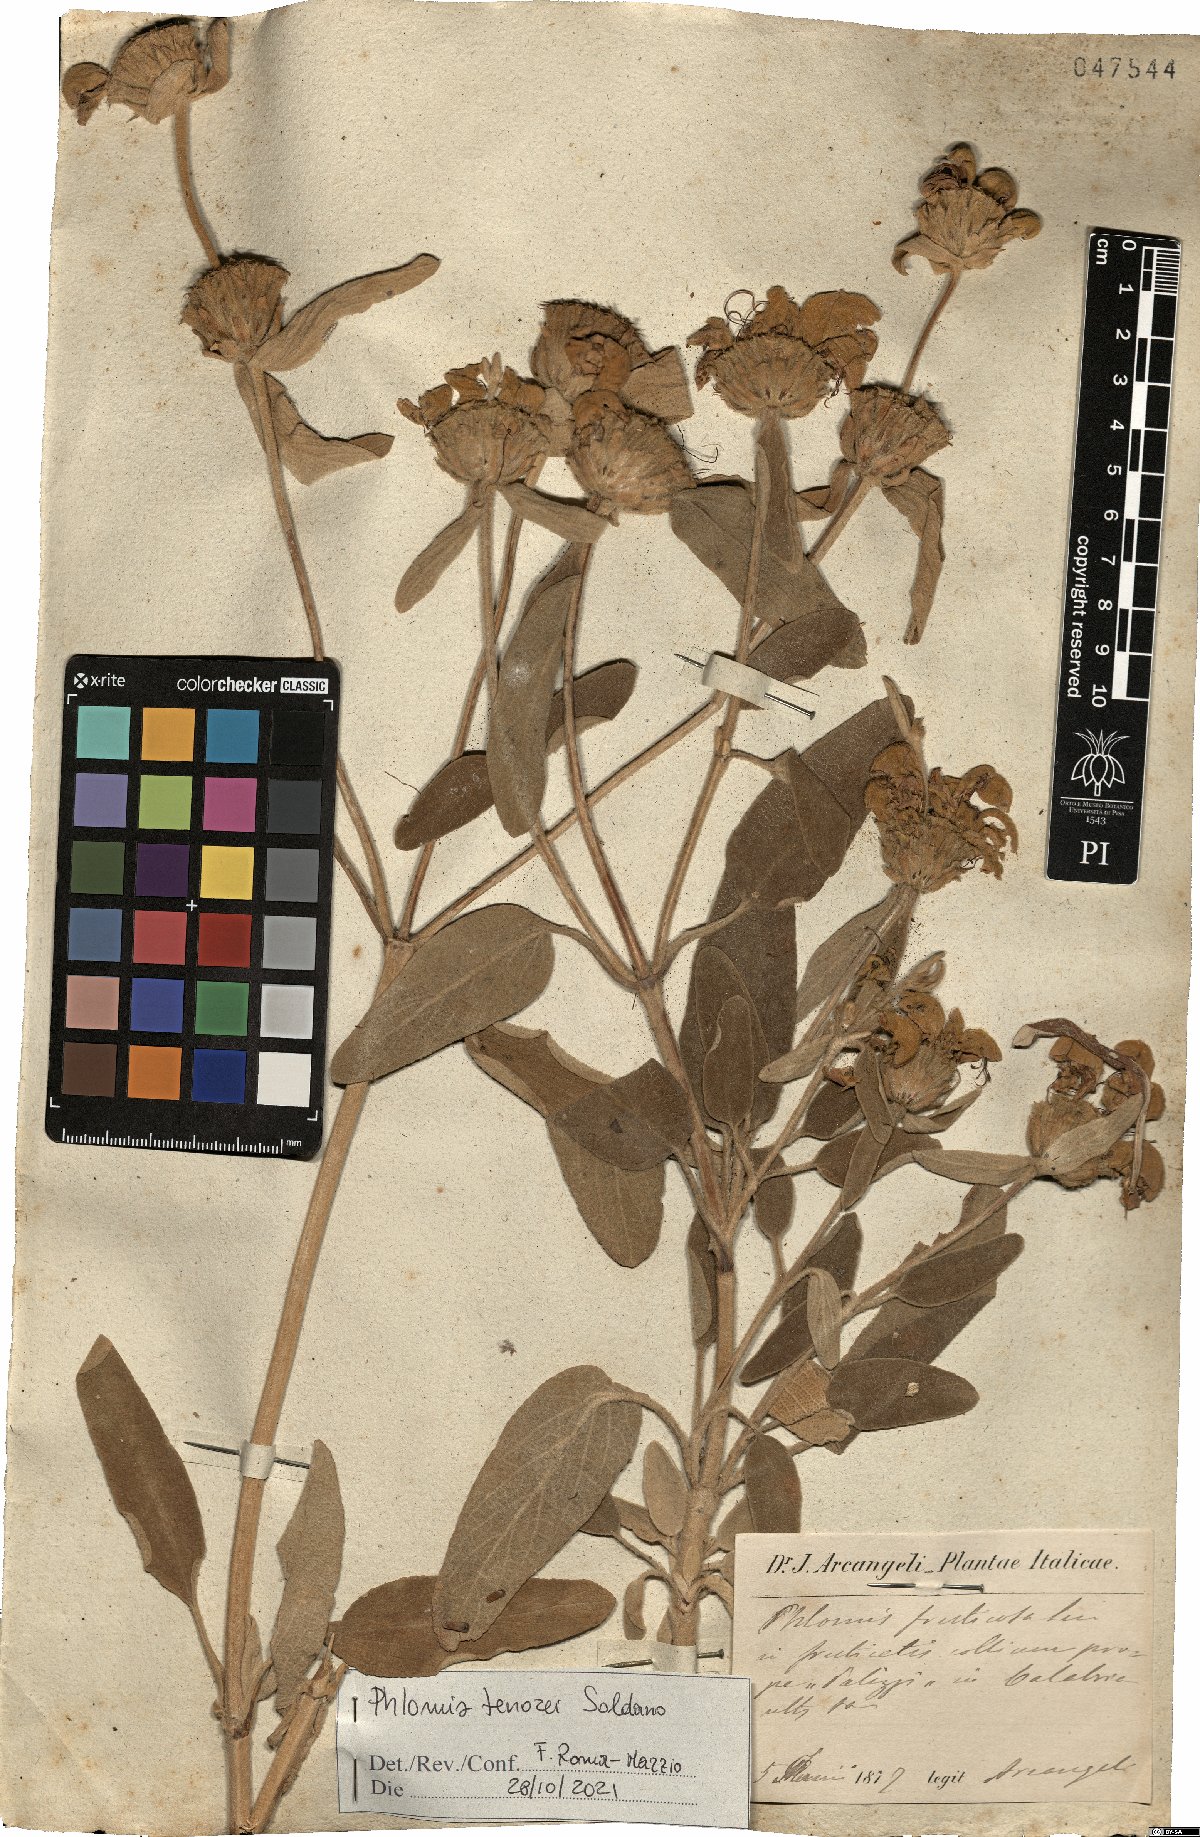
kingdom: Plantae
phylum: Tracheophyta
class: Magnoliopsida
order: Lamiales
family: Lamiaceae
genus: Phlomis
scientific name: Phlomis tenorei
